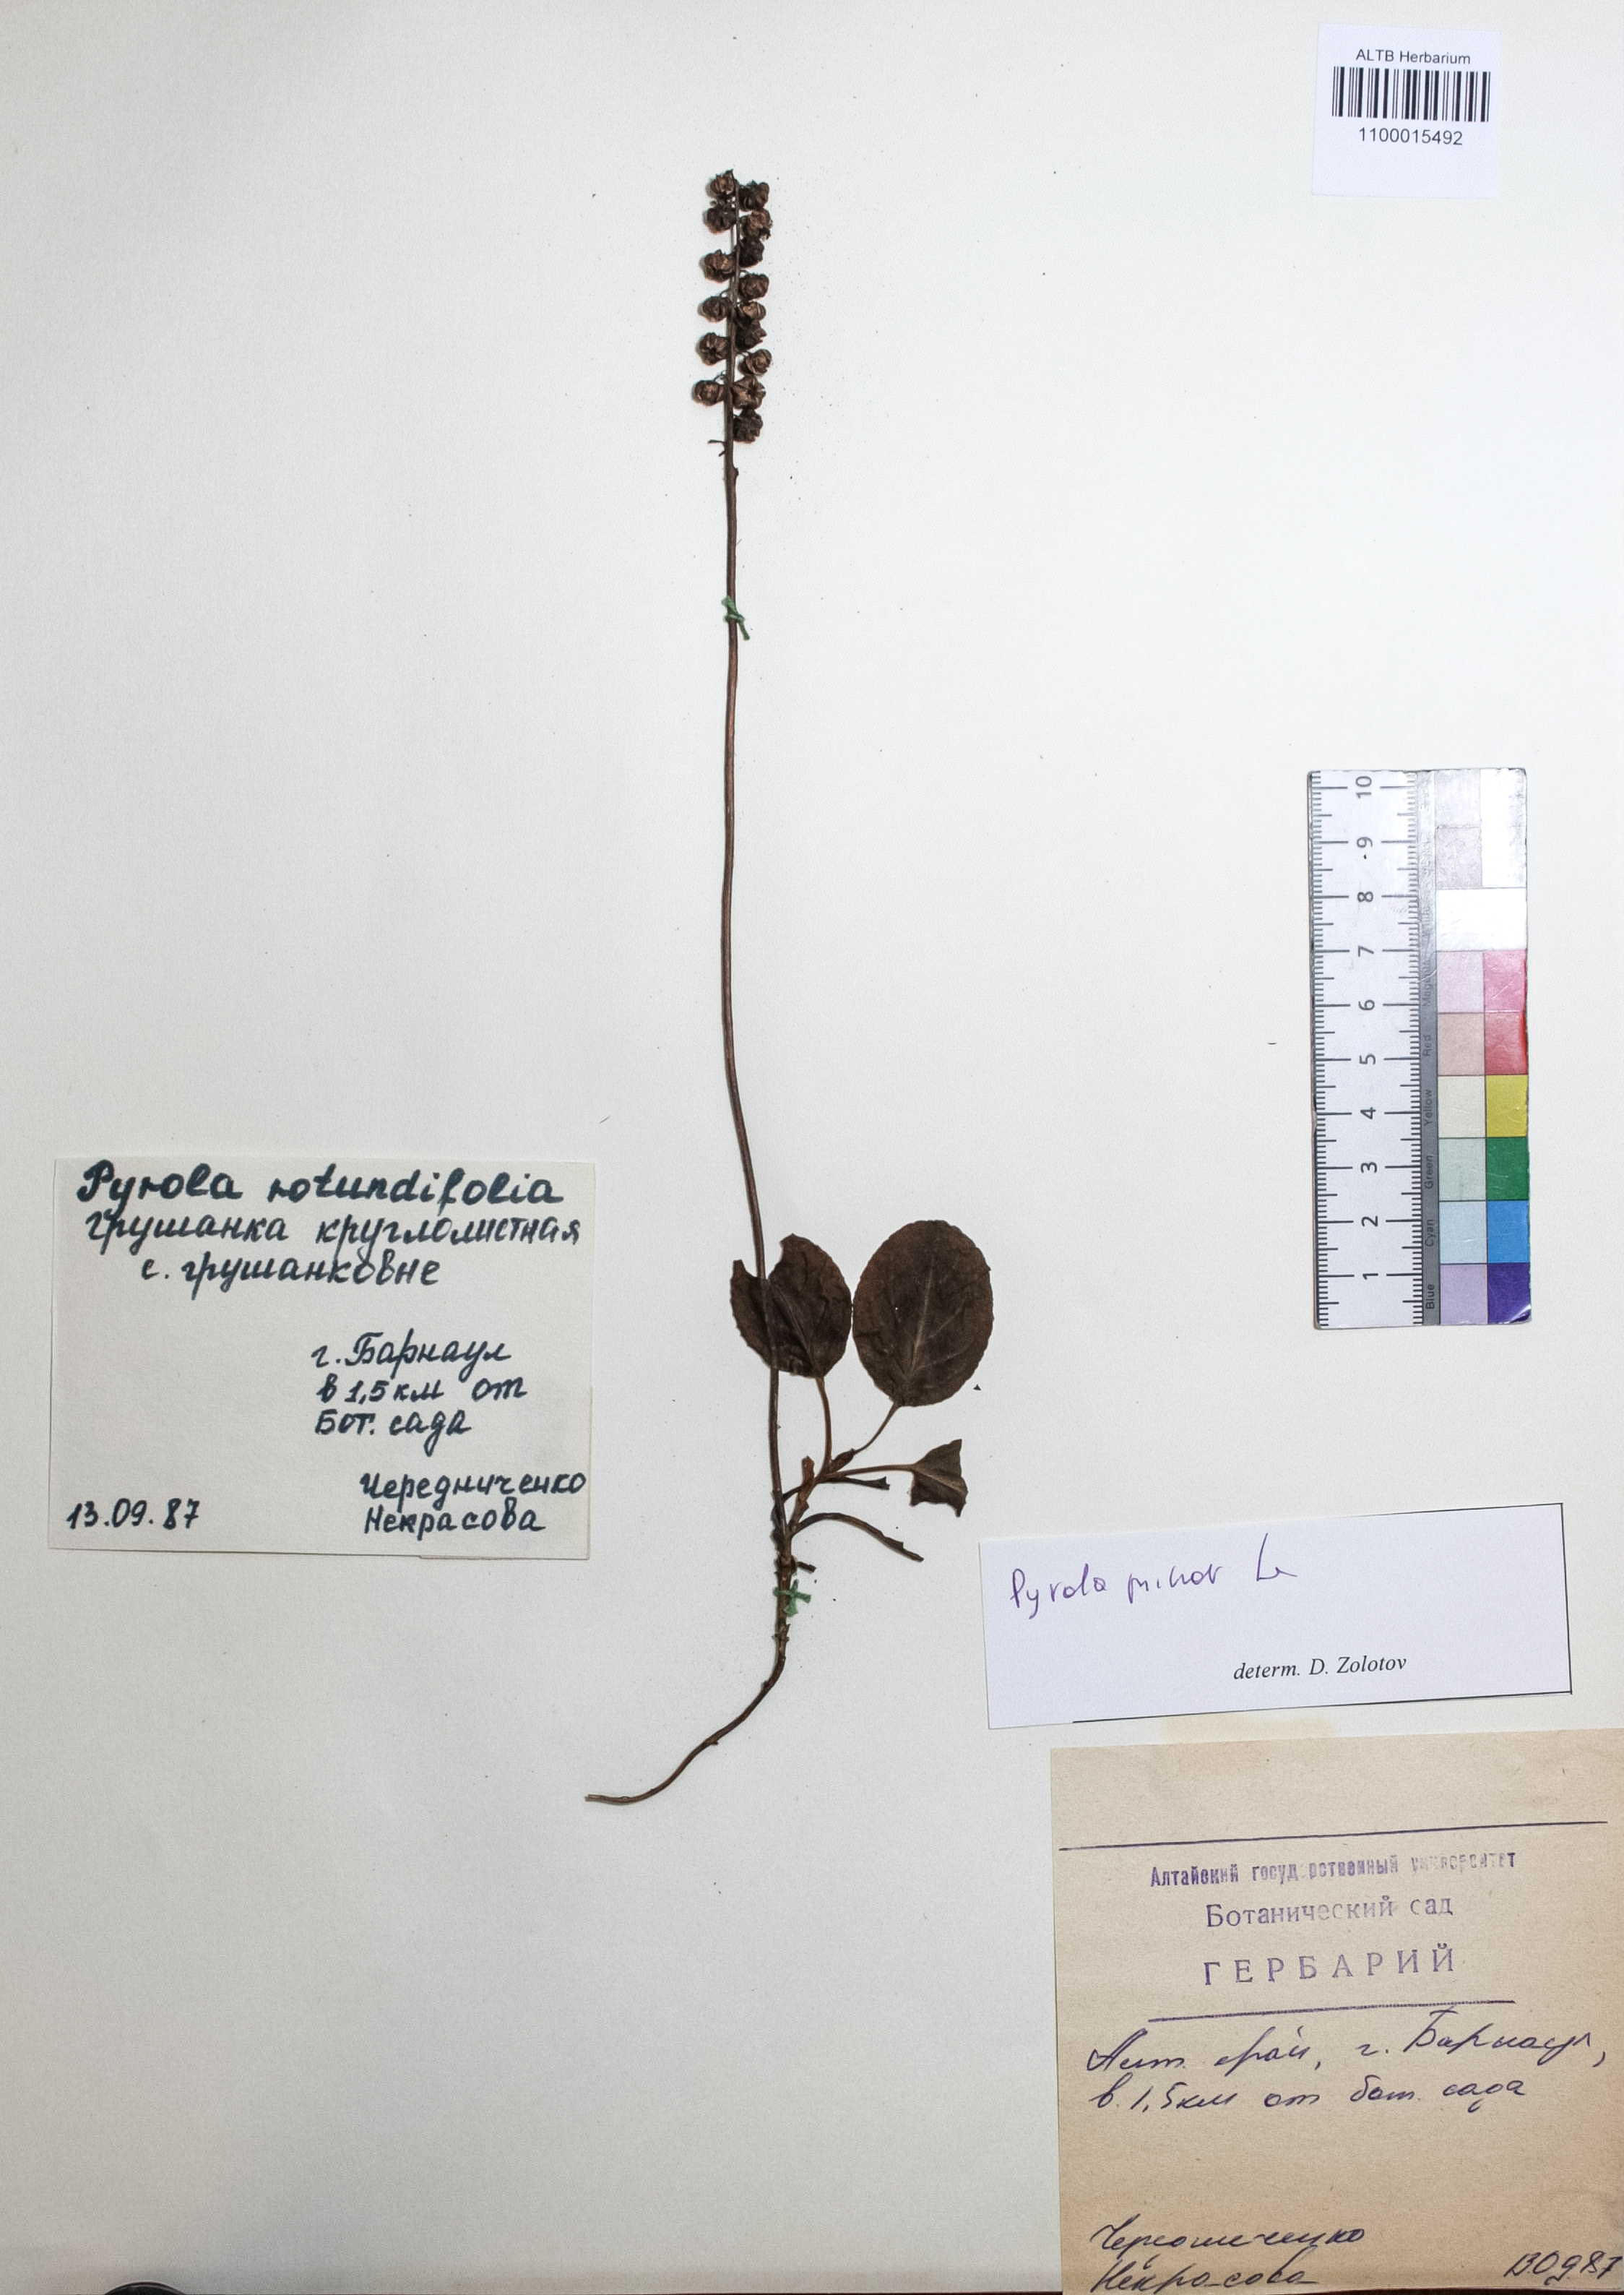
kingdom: Plantae
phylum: Tracheophyta
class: Magnoliopsida
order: Ericales
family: Ericaceae
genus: Pyrola
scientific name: Pyrola rotundifolia
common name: Round-leaved wintergreen
